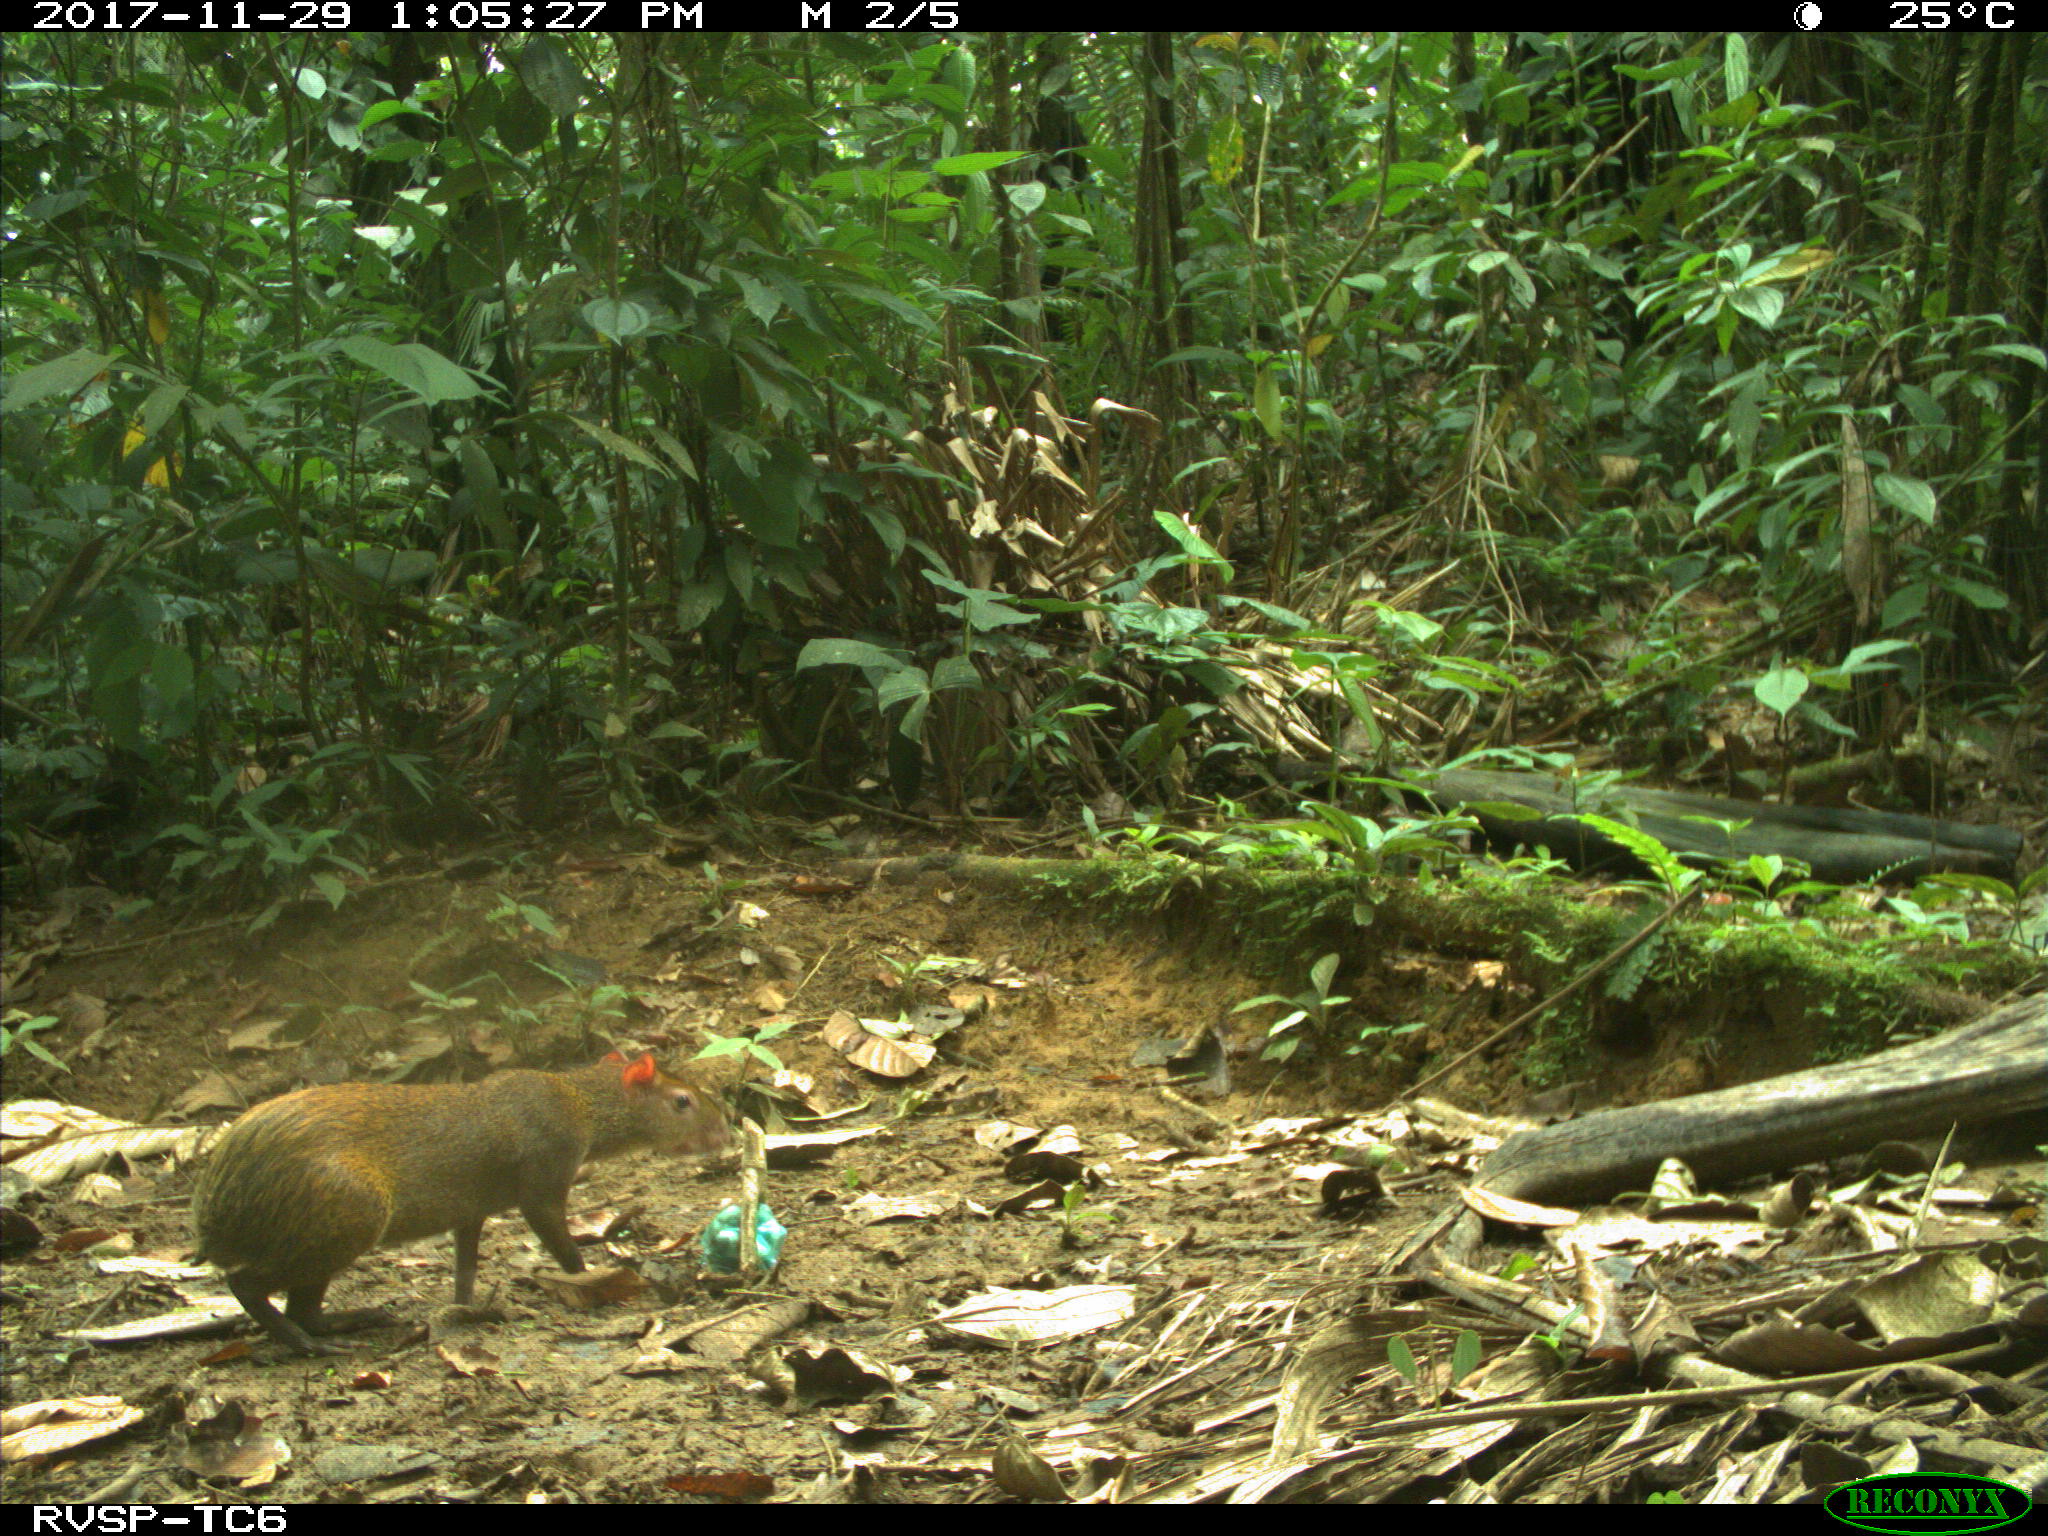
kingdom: Animalia
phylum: Chordata
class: Mammalia
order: Rodentia
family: Dasyproctidae
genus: Dasyprocta
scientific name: Dasyprocta punctata
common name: Central american agouti
